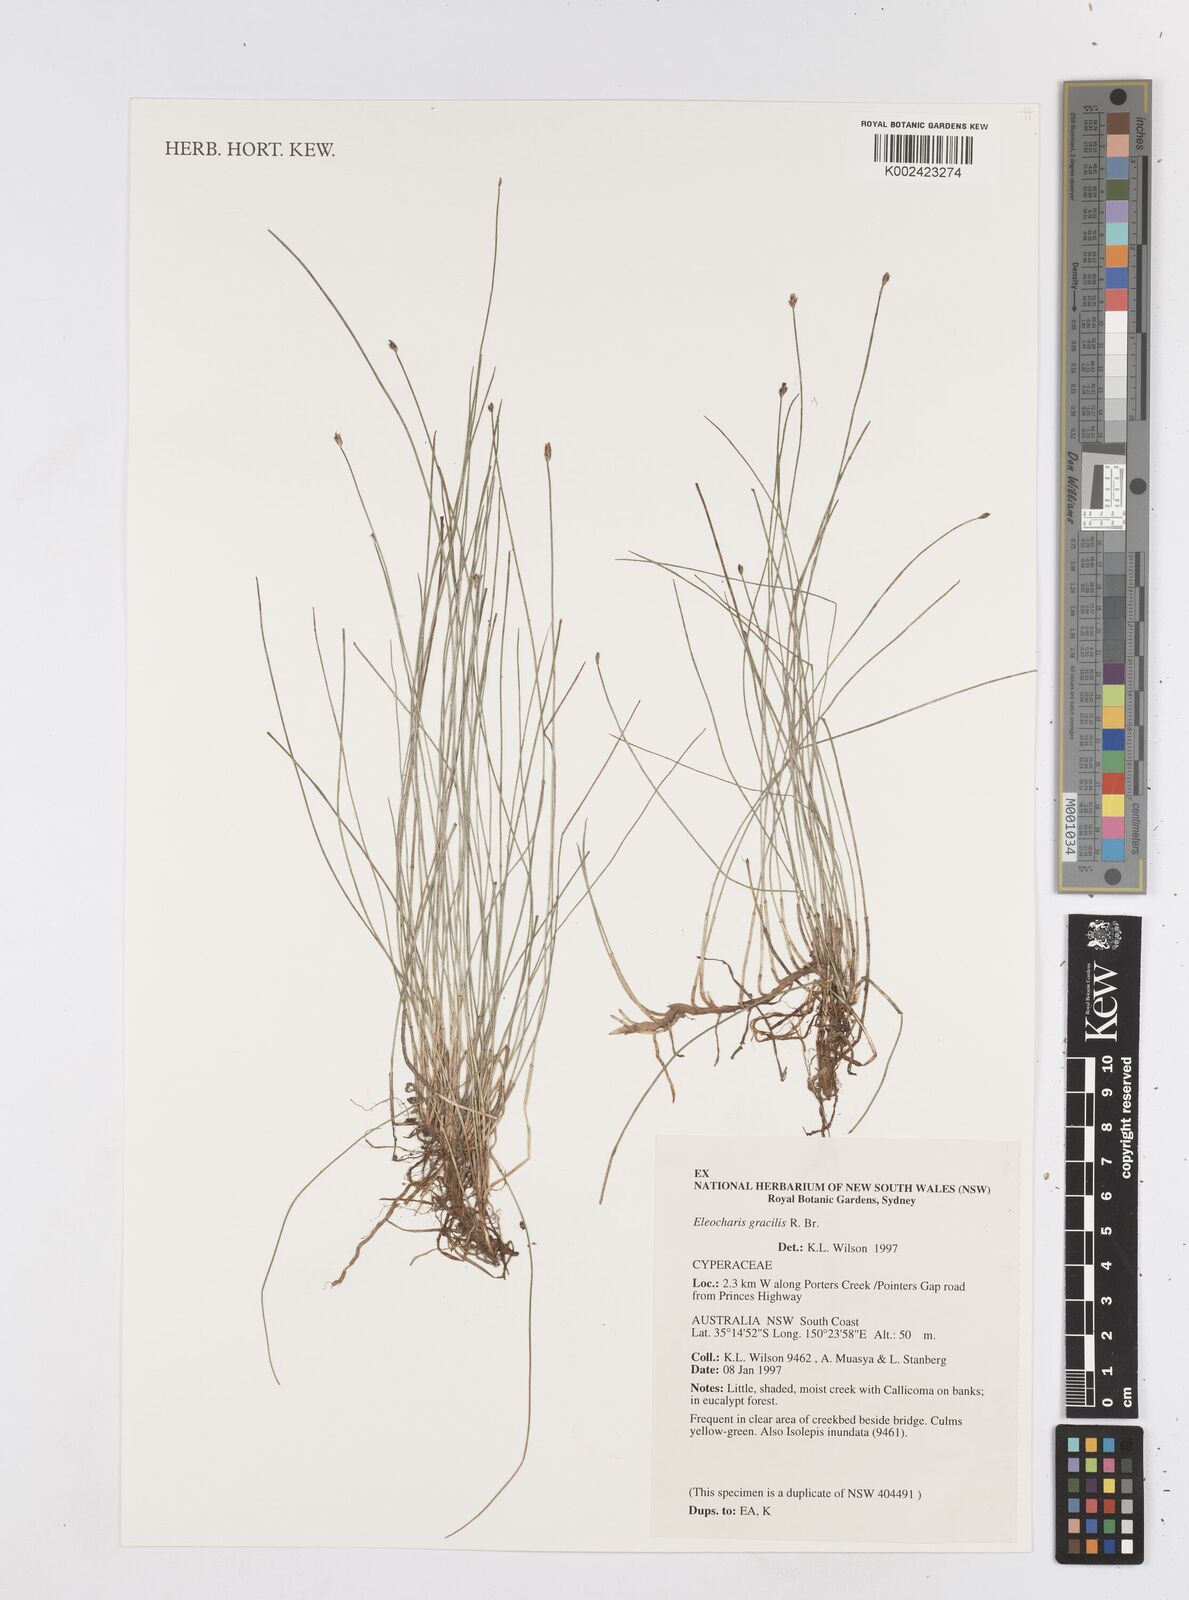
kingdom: Plantae
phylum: Tracheophyta
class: Liliopsida
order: Poales
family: Cyperaceae
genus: Eleocharis
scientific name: Eleocharis multicaulis
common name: Many-stalked spike-rush
